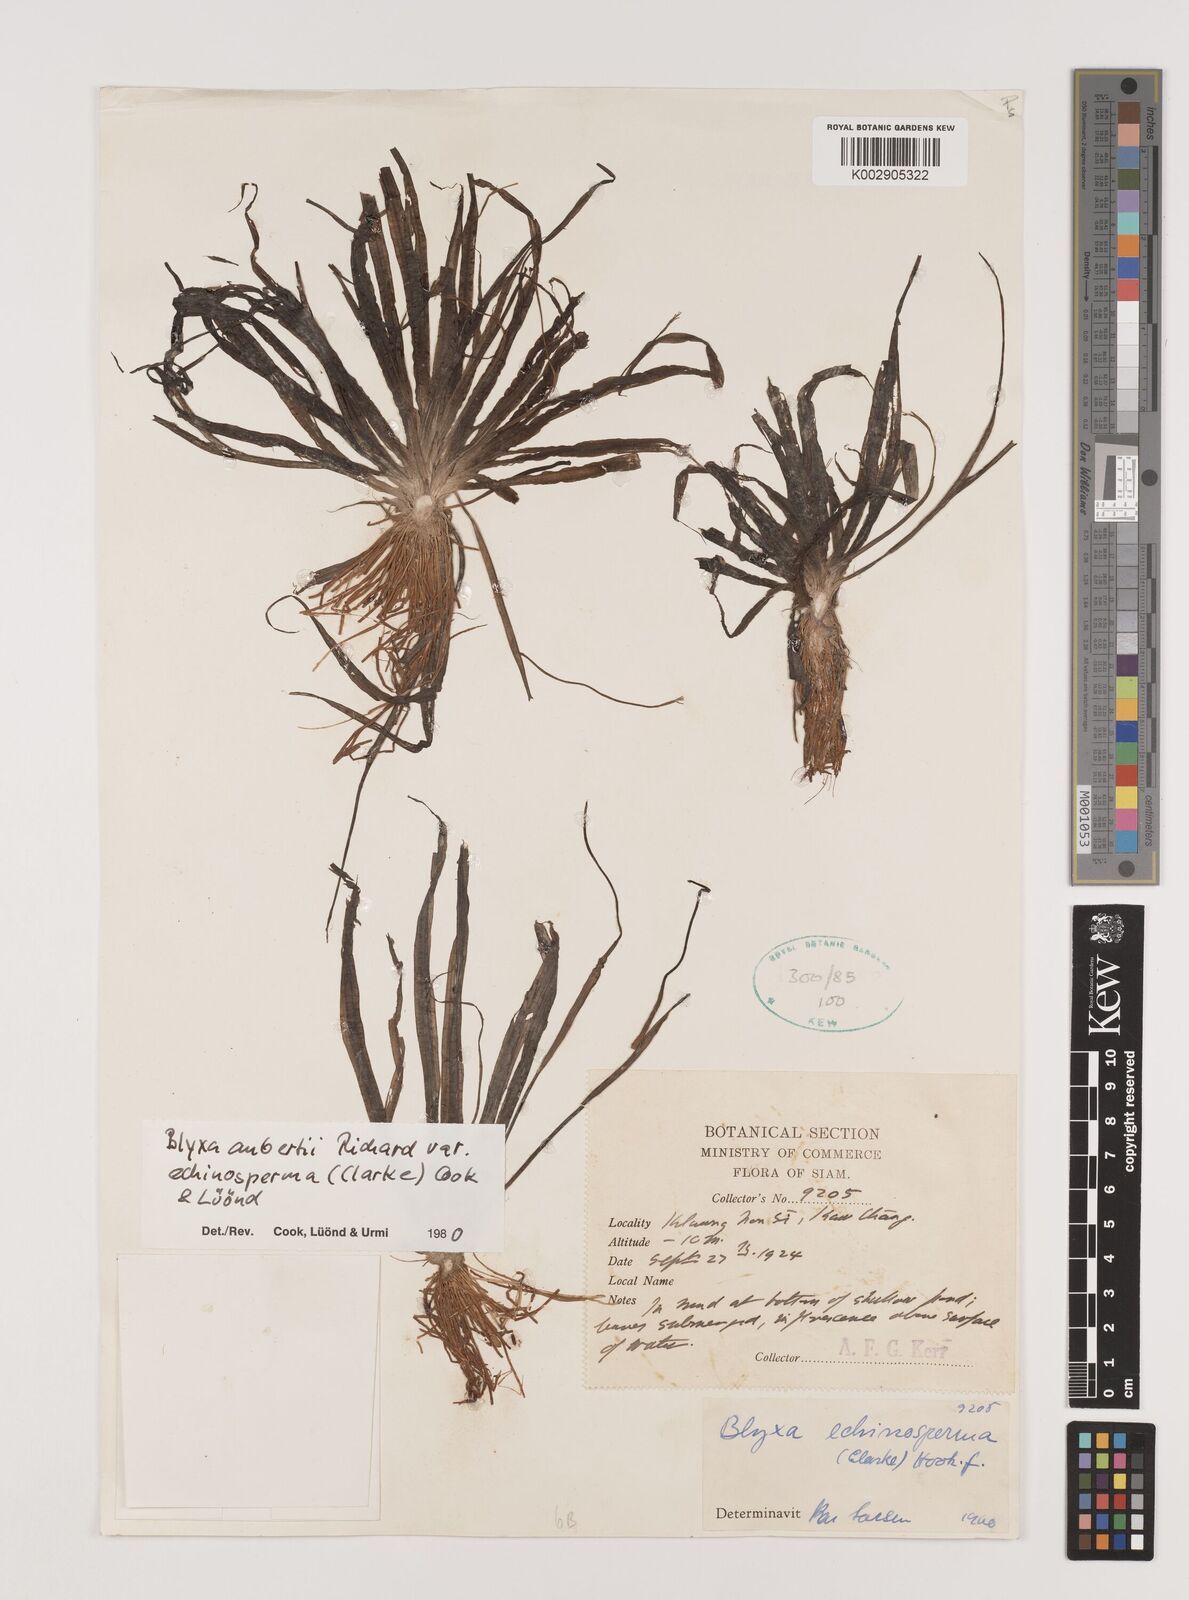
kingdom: Plantae
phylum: Tracheophyta
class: Liliopsida
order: Alismatales
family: Hydrocharitaceae
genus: Blyxa
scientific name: Blyxa echinosperma
